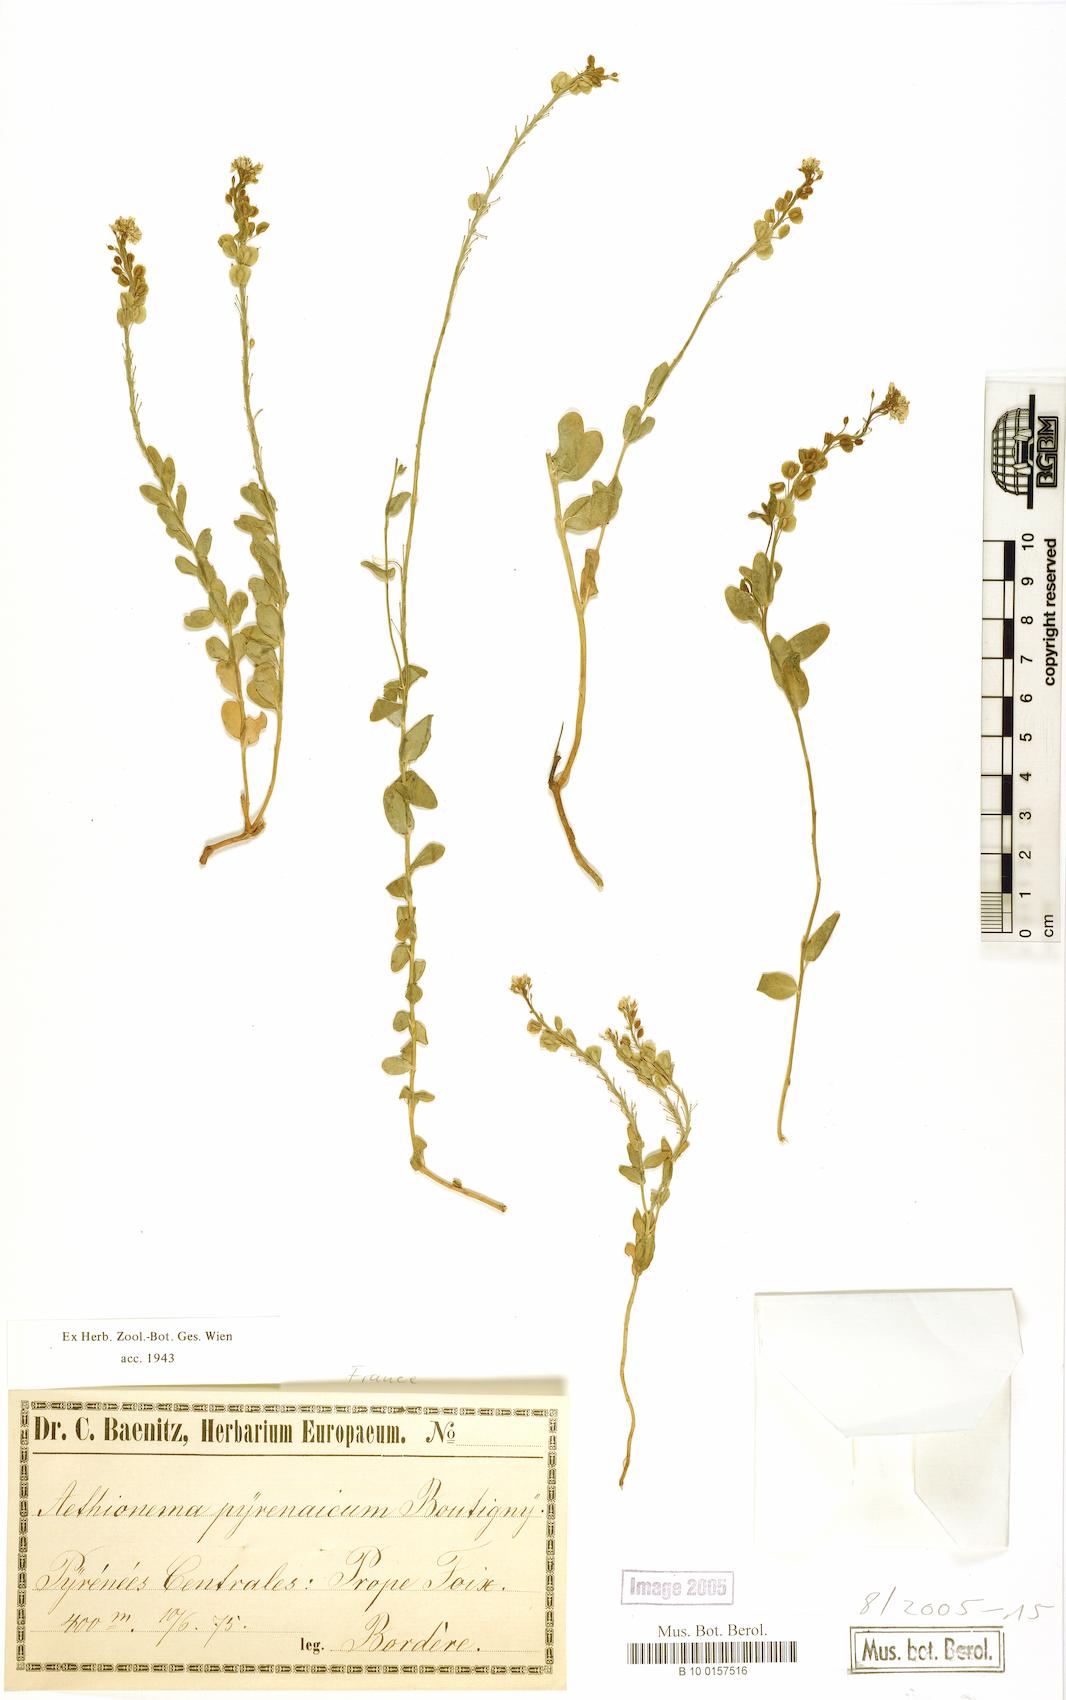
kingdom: Plantae
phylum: Tracheophyta
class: Magnoliopsida
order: Brassicales
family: Brassicaceae
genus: Aethionema
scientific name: Aethionema saxatile
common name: Burnt candytuft
